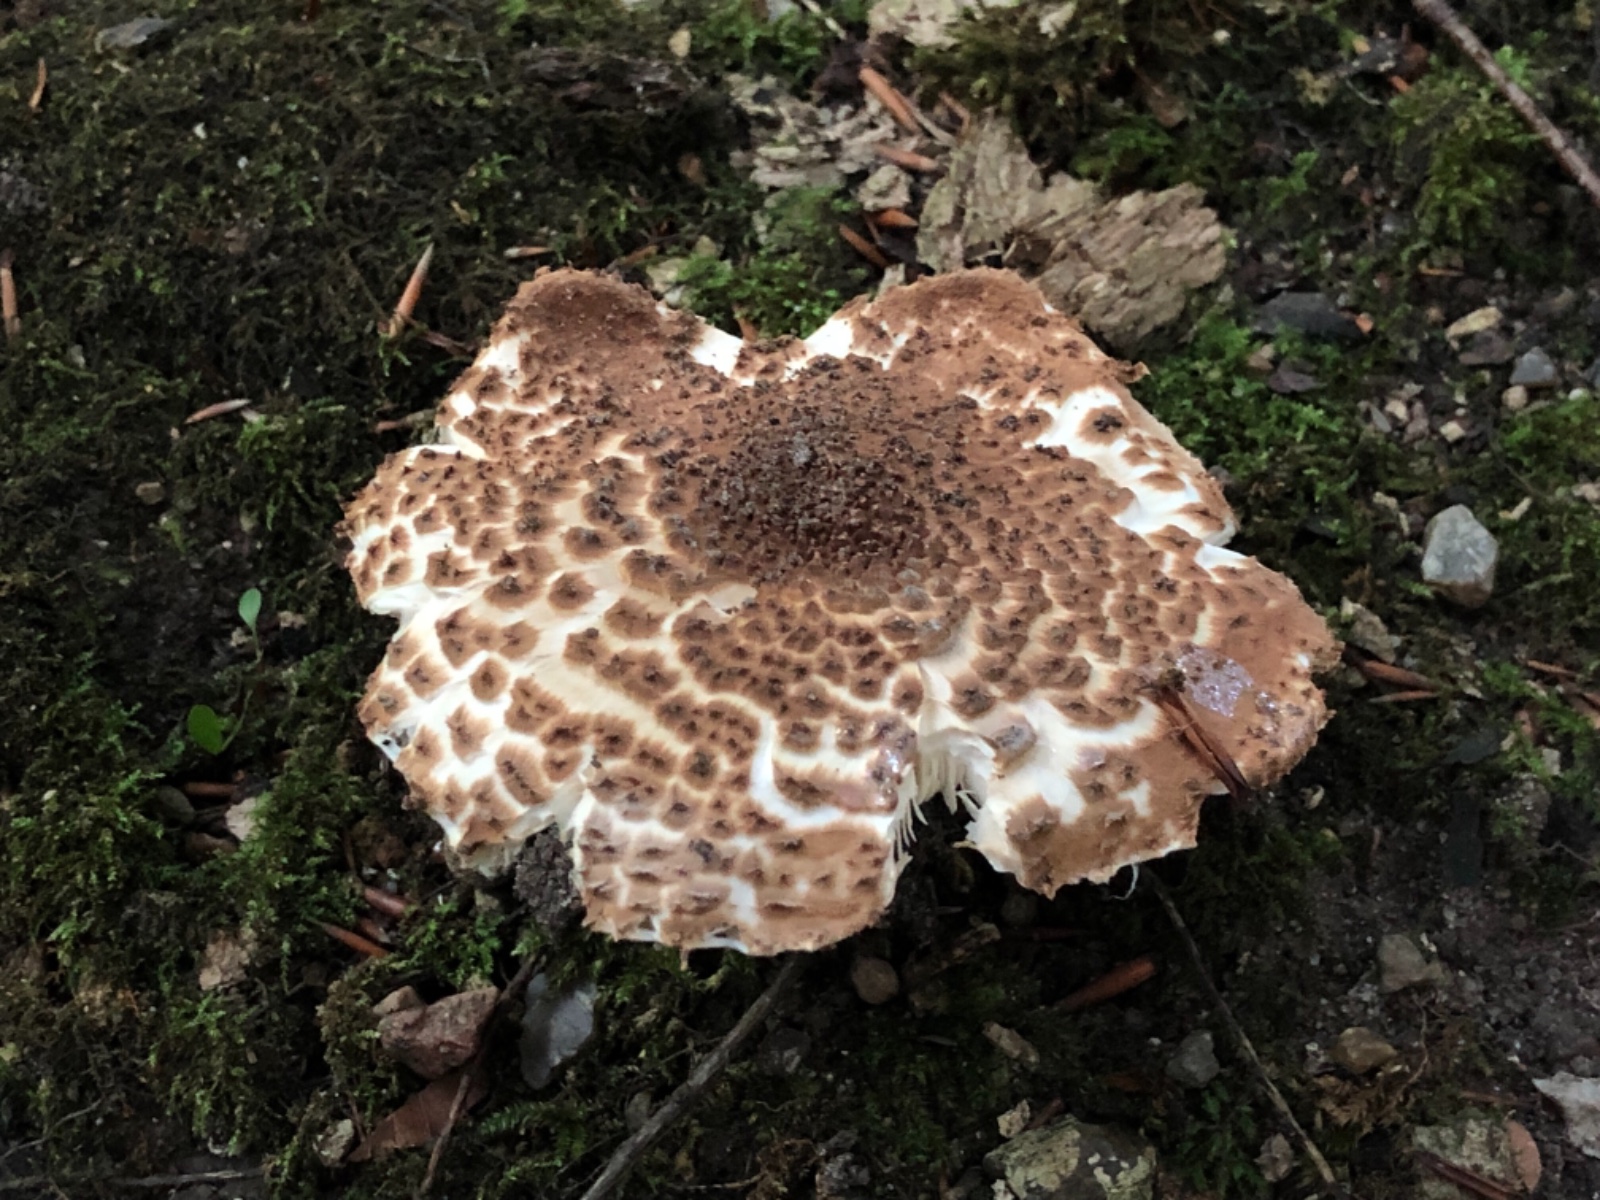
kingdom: Fungi
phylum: Basidiomycota
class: Agaricomycetes
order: Agaricales
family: Agaricaceae
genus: Echinoderma
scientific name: Echinoderma asperum
